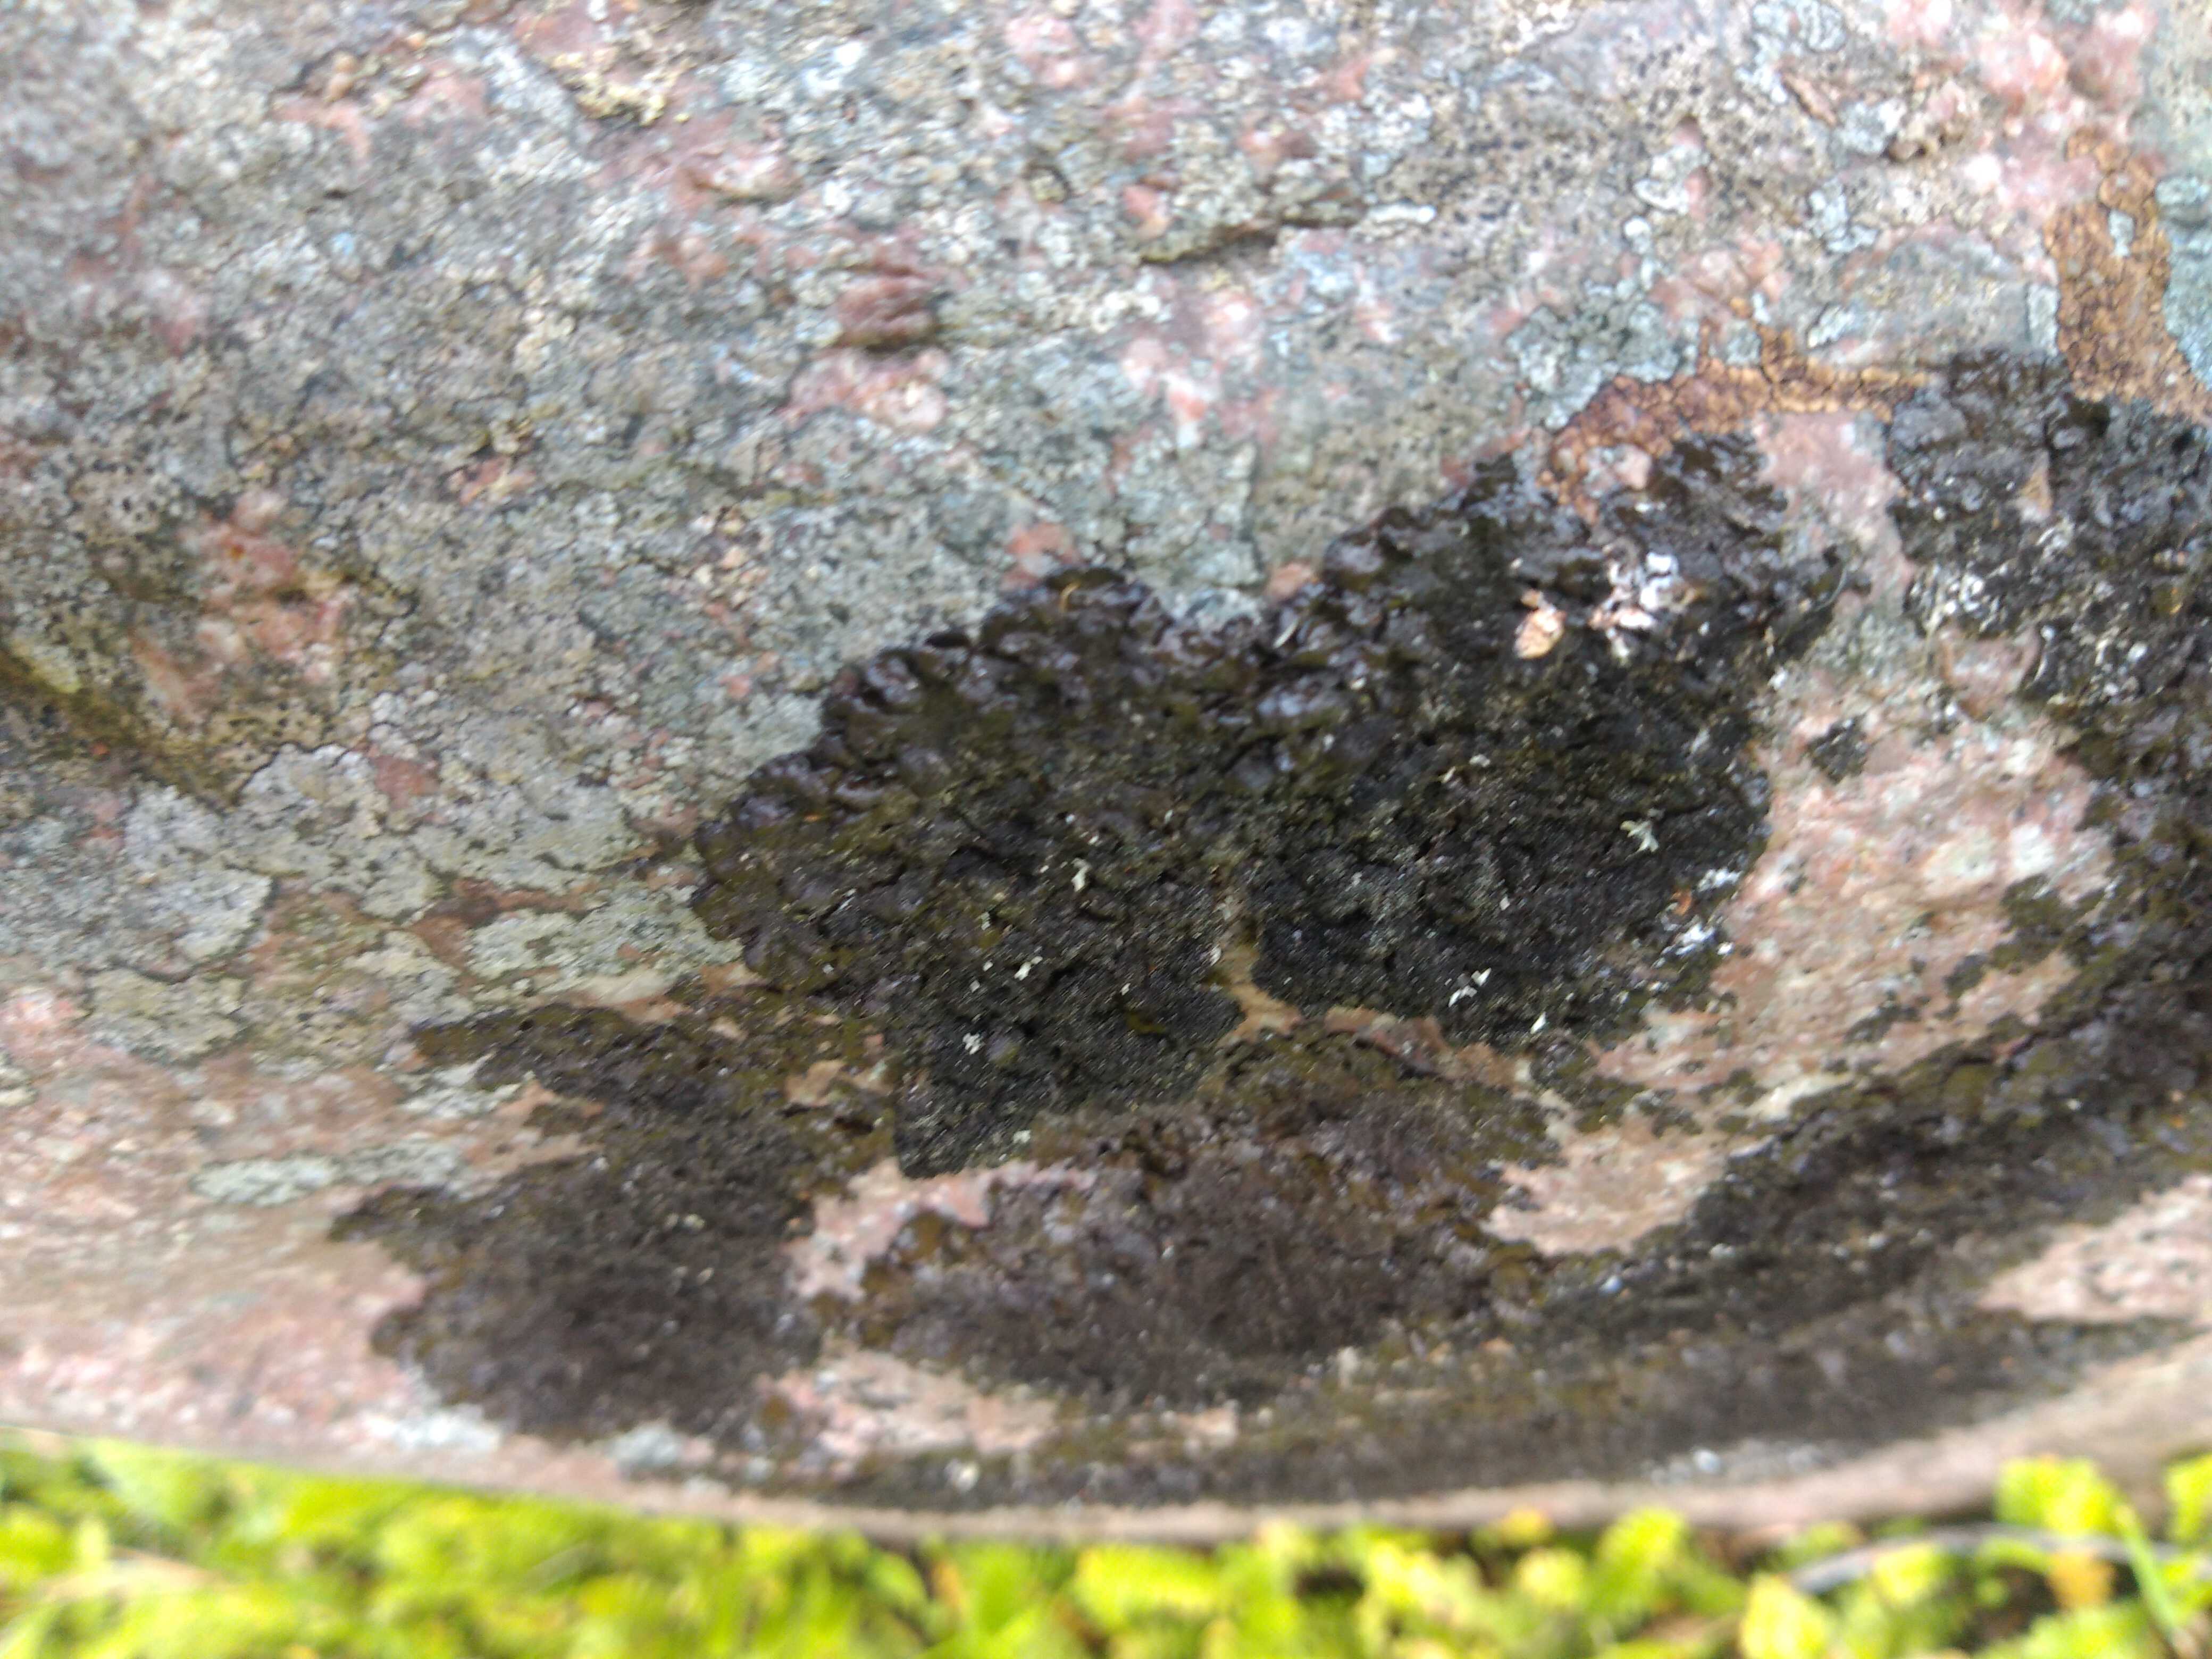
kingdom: Fungi
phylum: Ascomycota
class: Lecanoromycetes
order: Lecanorales
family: Parmeliaceae
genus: Melanelixia
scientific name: Melanelixia fuliginosa
